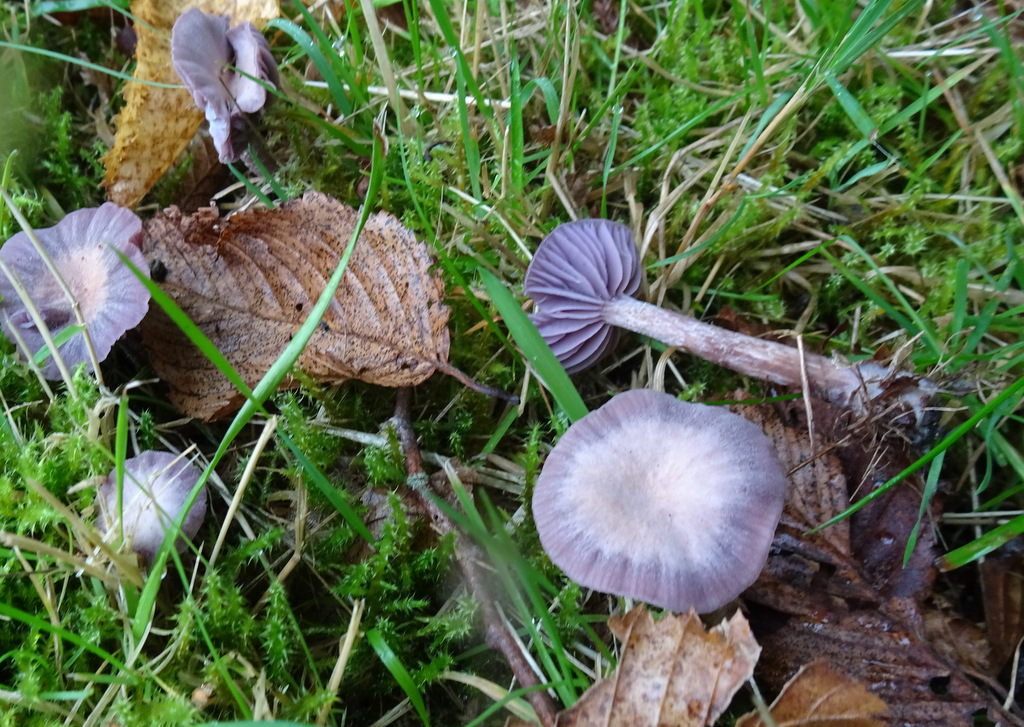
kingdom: Fungi
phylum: Basidiomycota
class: Agaricomycetes
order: Agaricales
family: Hydnangiaceae
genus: Laccaria
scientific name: Laccaria amethystina
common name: violet ametysthat
